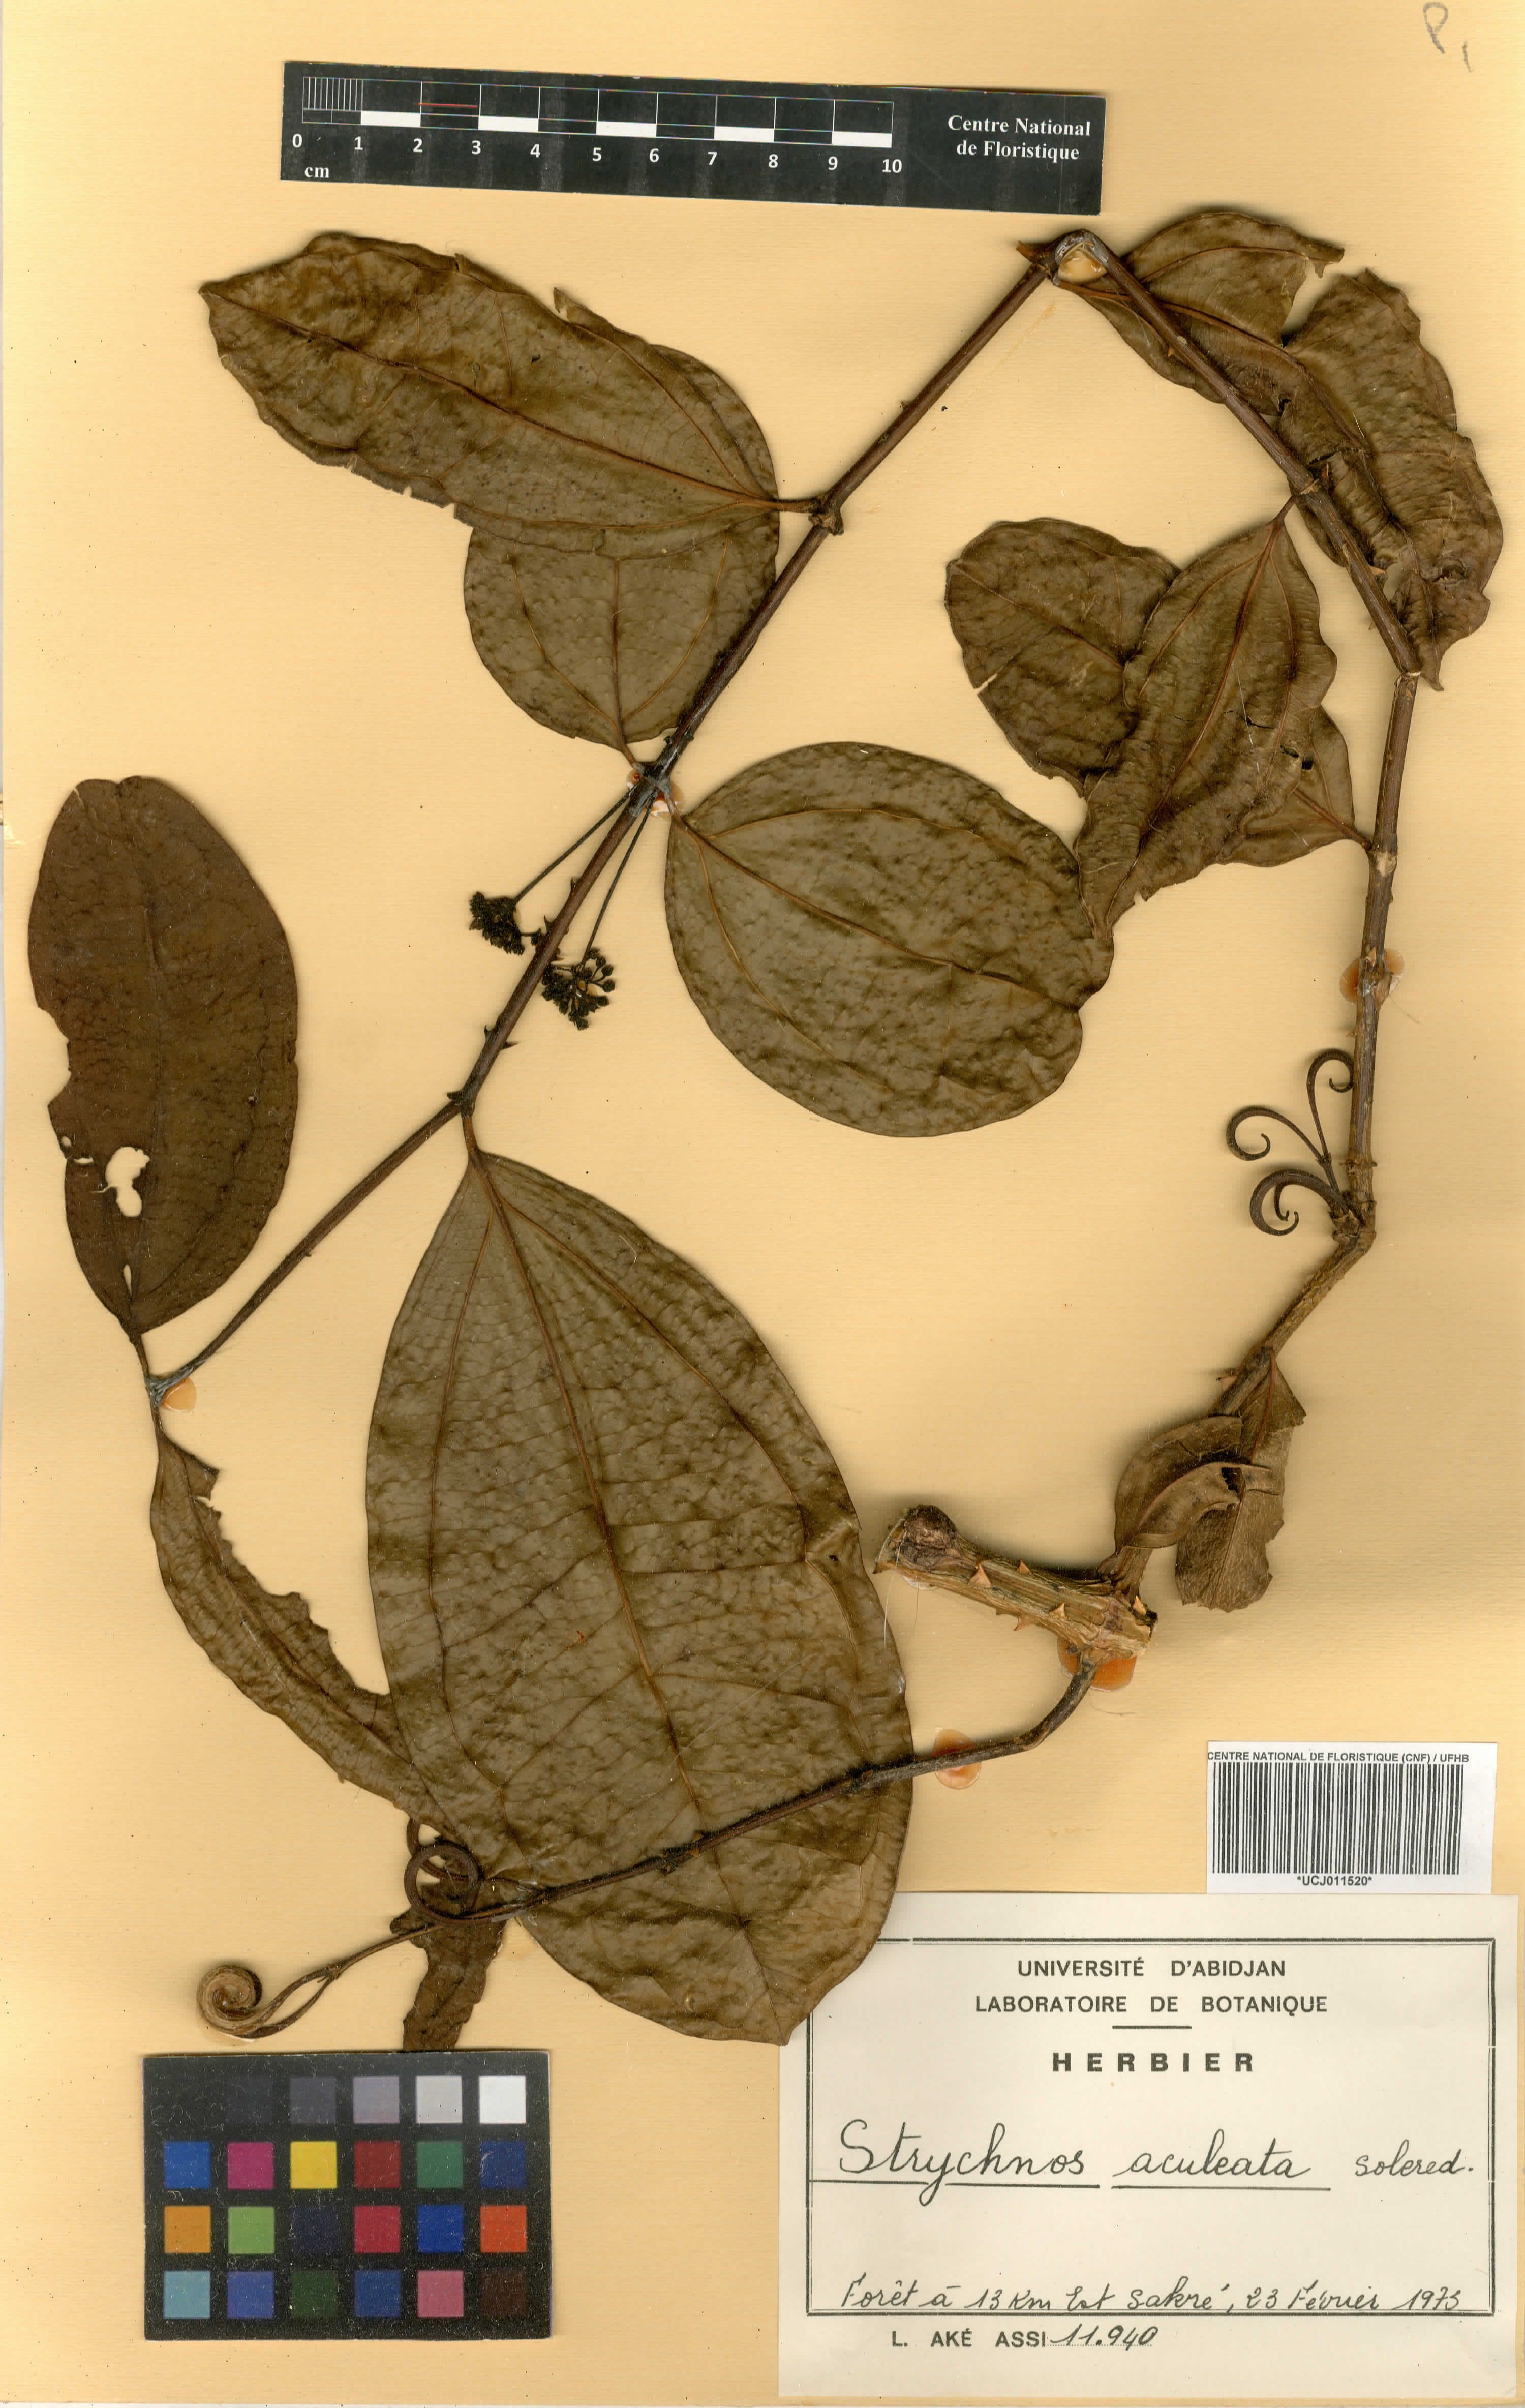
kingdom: Plantae
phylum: Tracheophyta
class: Magnoliopsida
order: Gentianales
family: Loganiaceae
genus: Strychnos
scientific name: Strychnos aculeata
